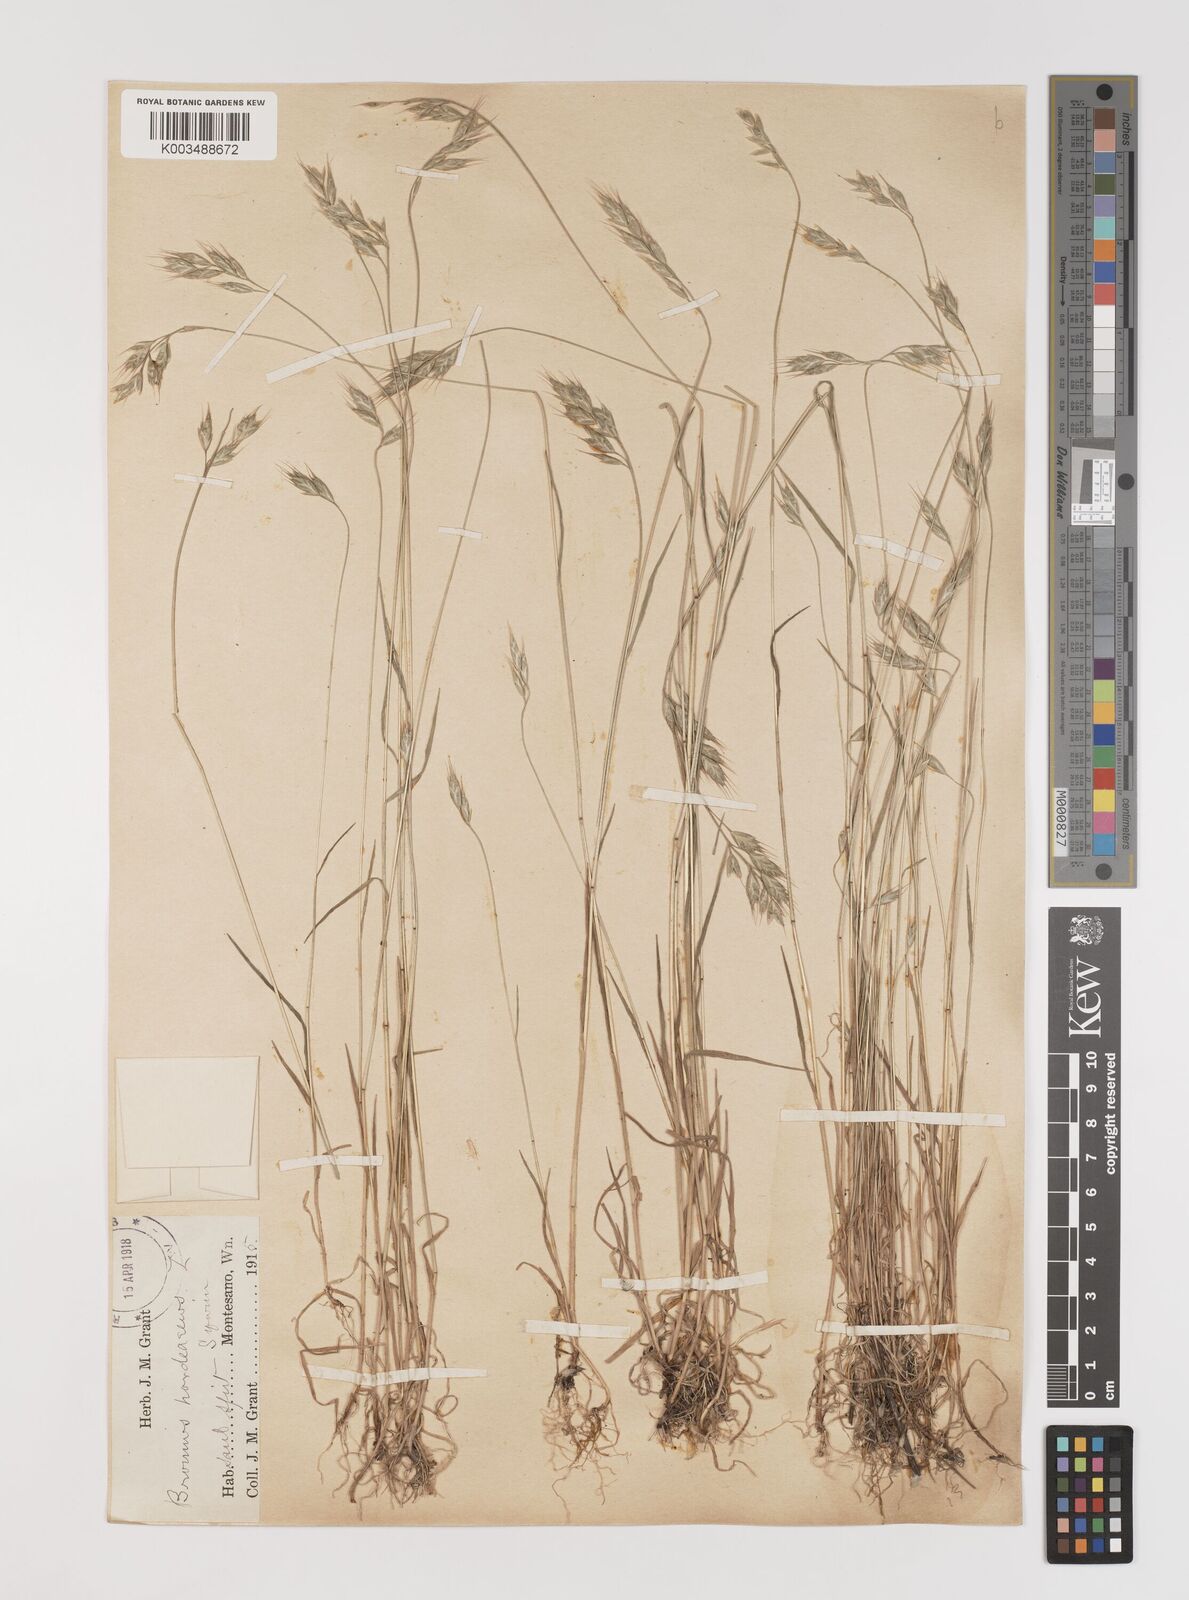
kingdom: Plantae
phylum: Tracheophyta
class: Liliopsida
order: Poales
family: Poaceae
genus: Bromus
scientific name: Bromus hordeaceus
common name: Soft brome
